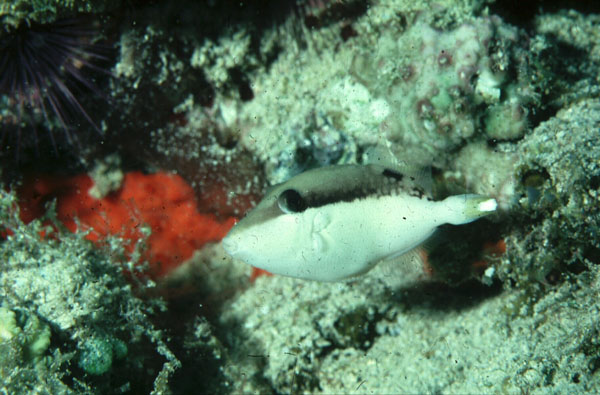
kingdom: Animalia
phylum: Chordata
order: Tetraodontiformes
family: Balistidae
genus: Sufflamen
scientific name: Sufflamen chrysopterum
